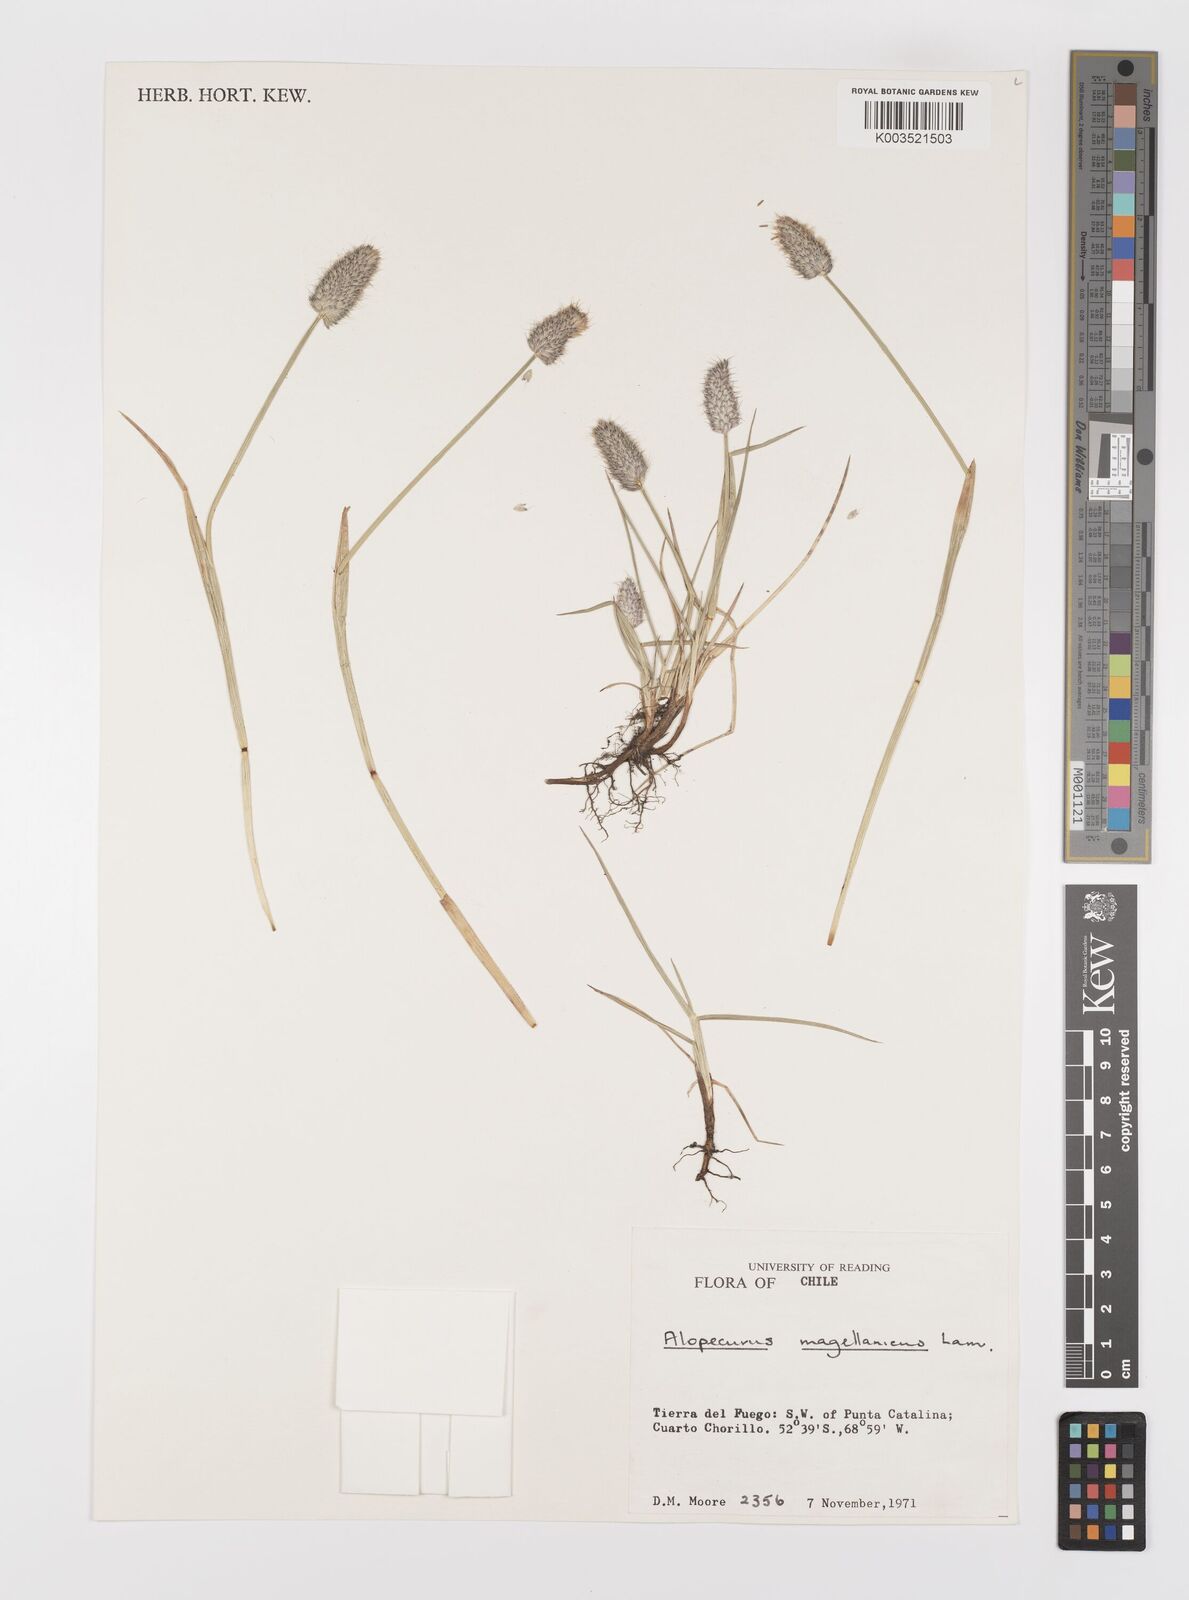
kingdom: Plantae
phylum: Tracheophyta
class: Liliopsida
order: Poales
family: Poaceae
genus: Alopecurus
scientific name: Alopecurus magellanicus
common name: Alpine foxtail
